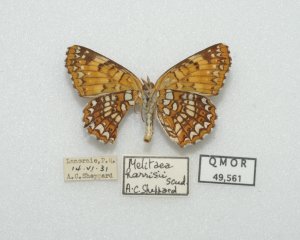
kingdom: Animalia
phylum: Arthropoda
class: Insecta
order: Lepidoptera
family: Nymphalidae
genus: Chlosyne
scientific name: Chlosyne harrisii
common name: Harris's Checkerspot
